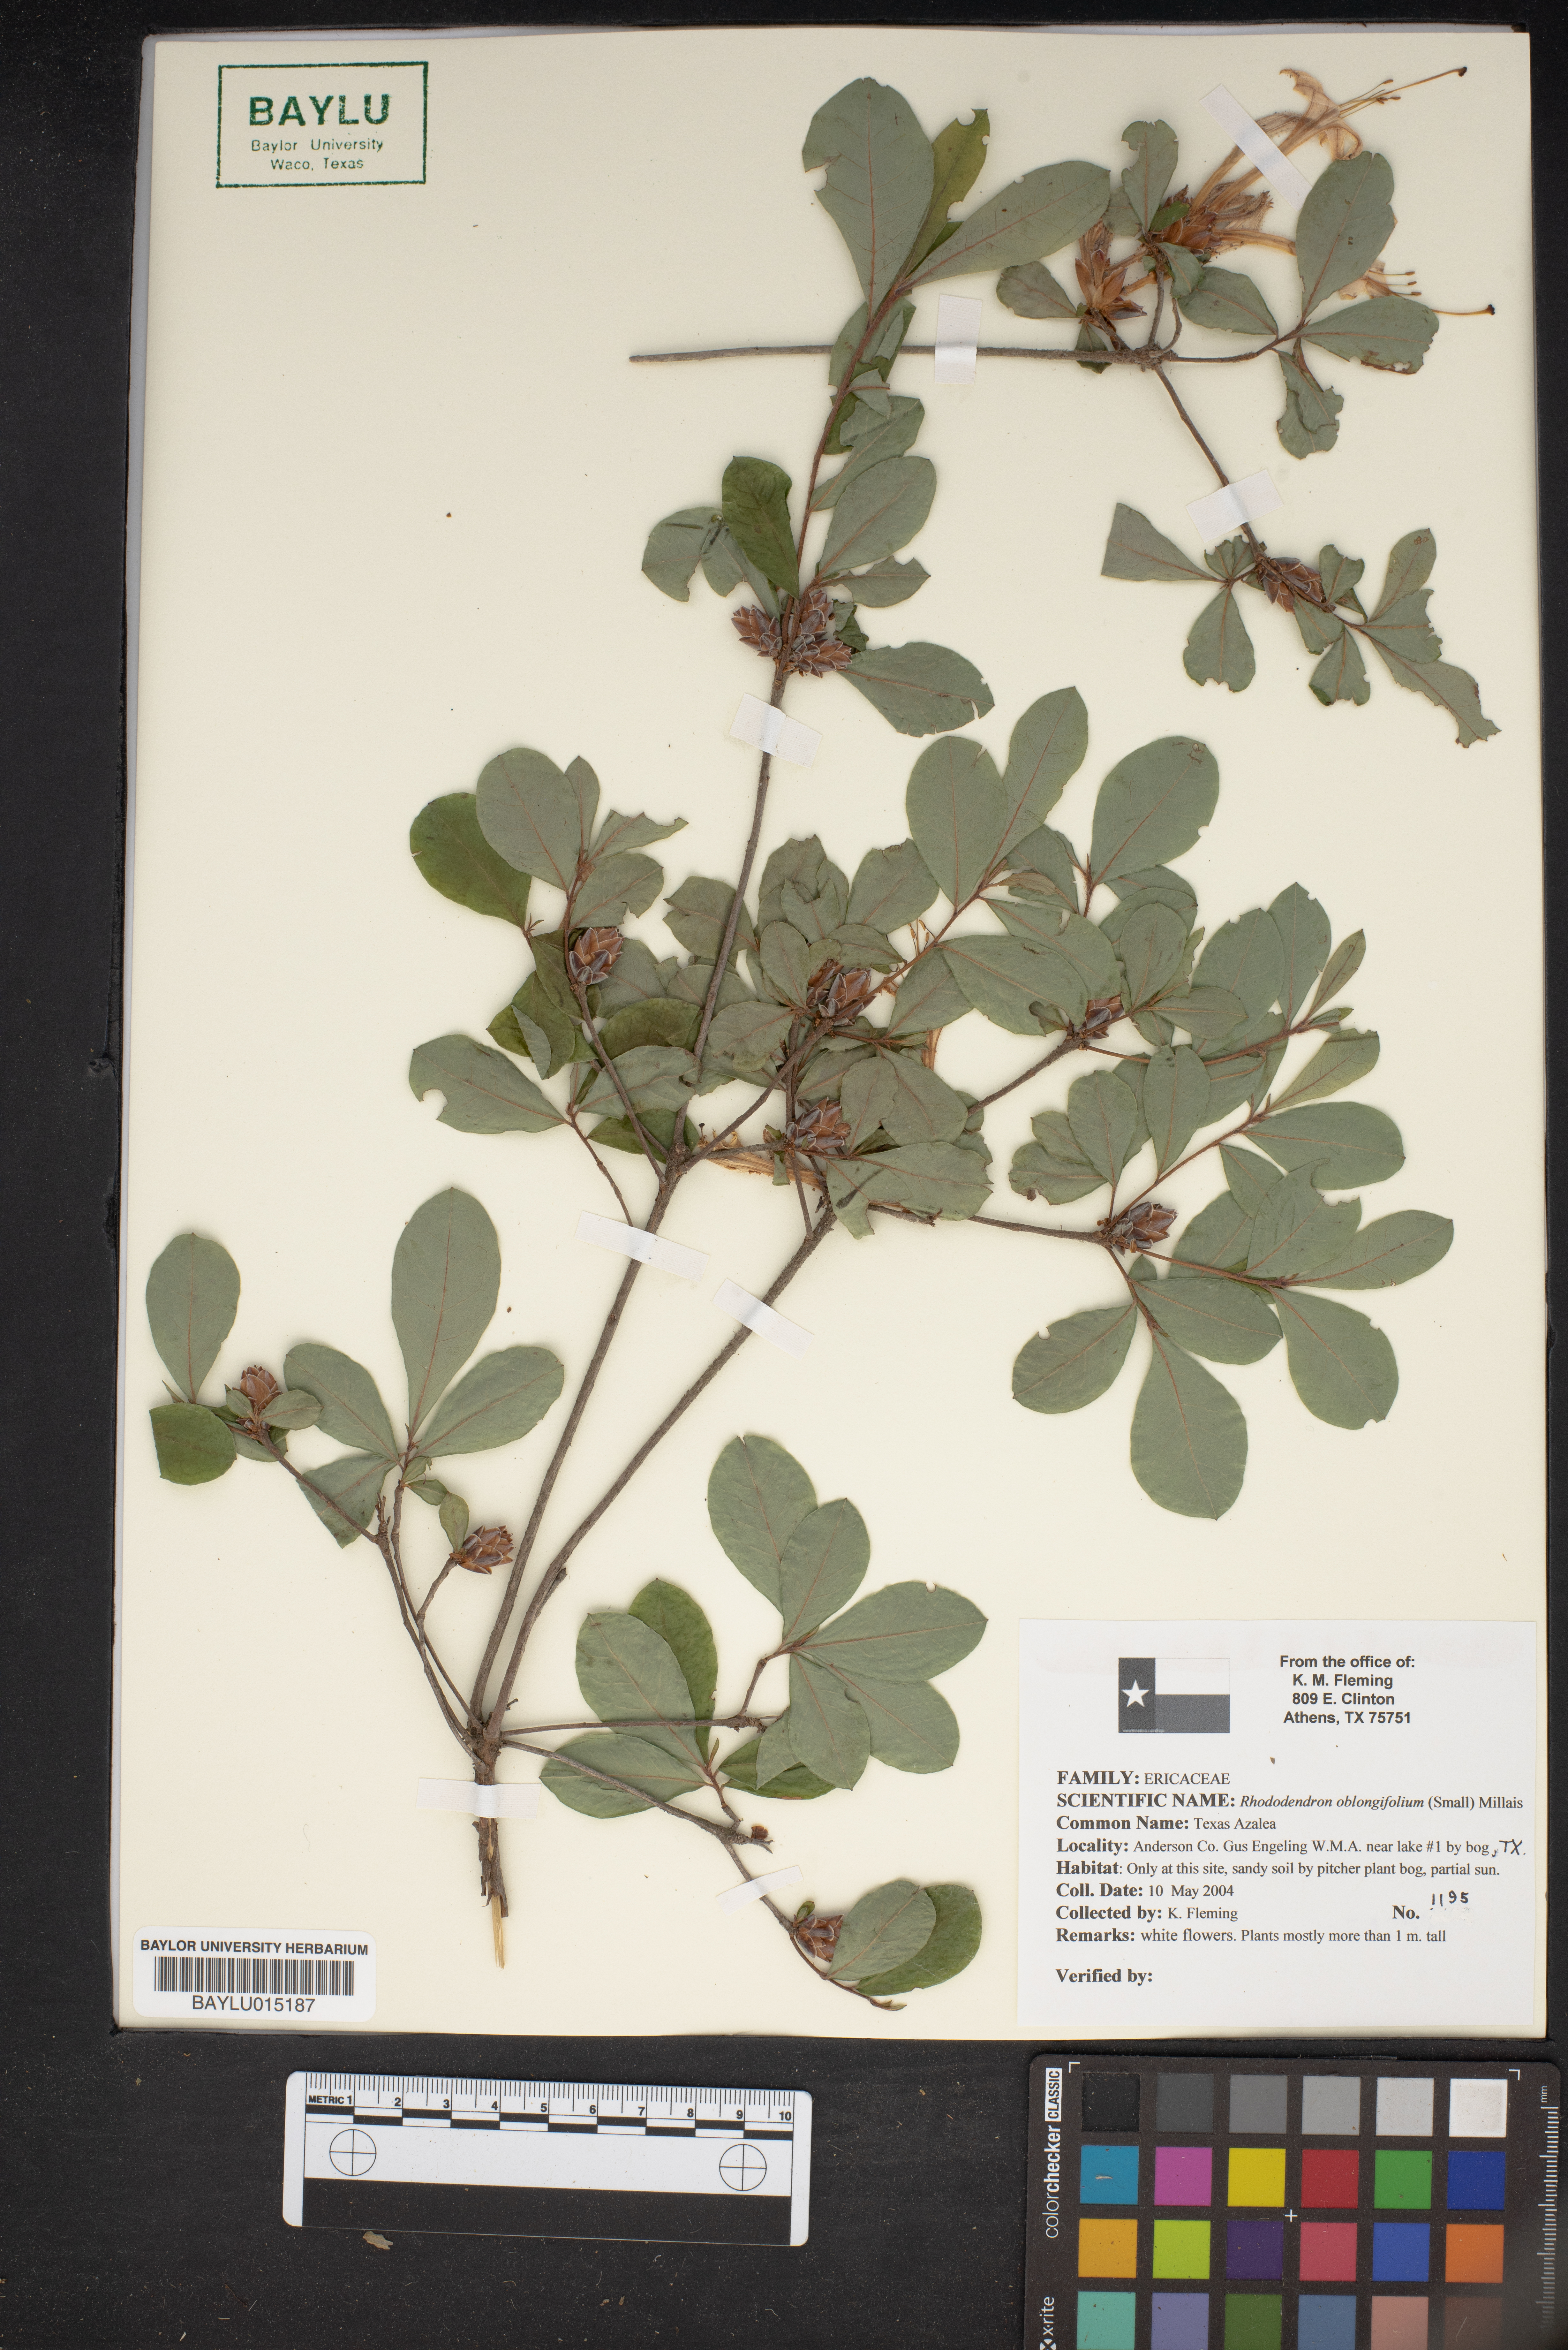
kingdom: Plantae
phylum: Tracheophyta
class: Magnoliopsida
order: Ericales
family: Ericaceae
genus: Rhododendron
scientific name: Rhododendron viscosum
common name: Clammy azalea
